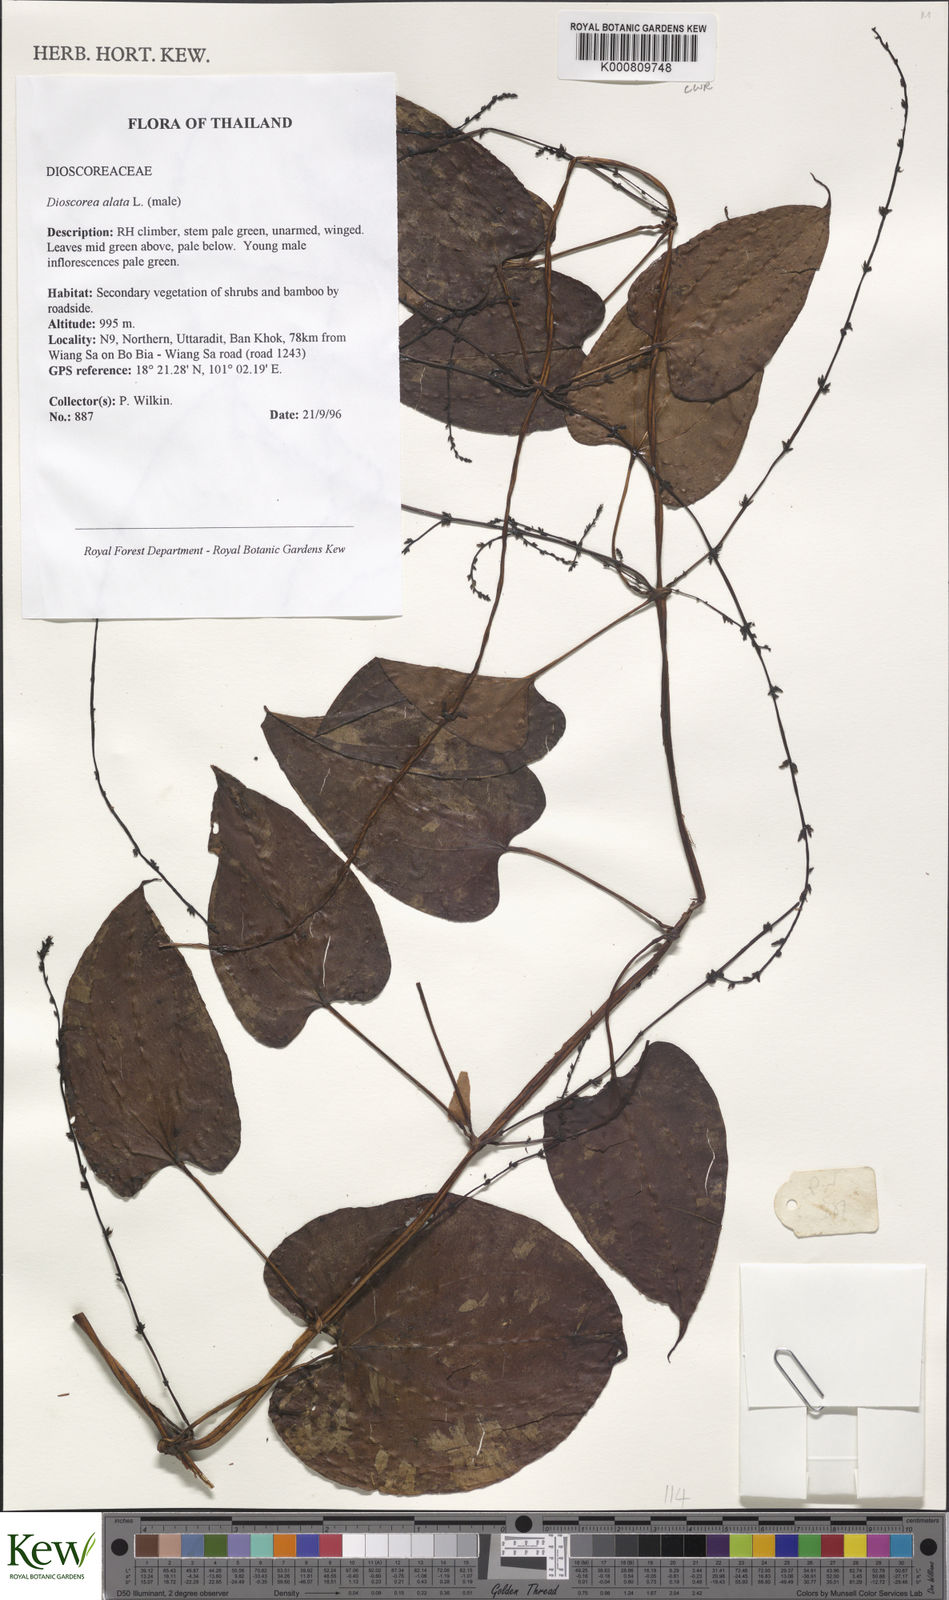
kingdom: Plantae
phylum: Tracheophyta
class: Liliopsida
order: Dioscoreales
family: Dioscoreaceae
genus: Dioscorea
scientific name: Dioscorea alata
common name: Water yam
